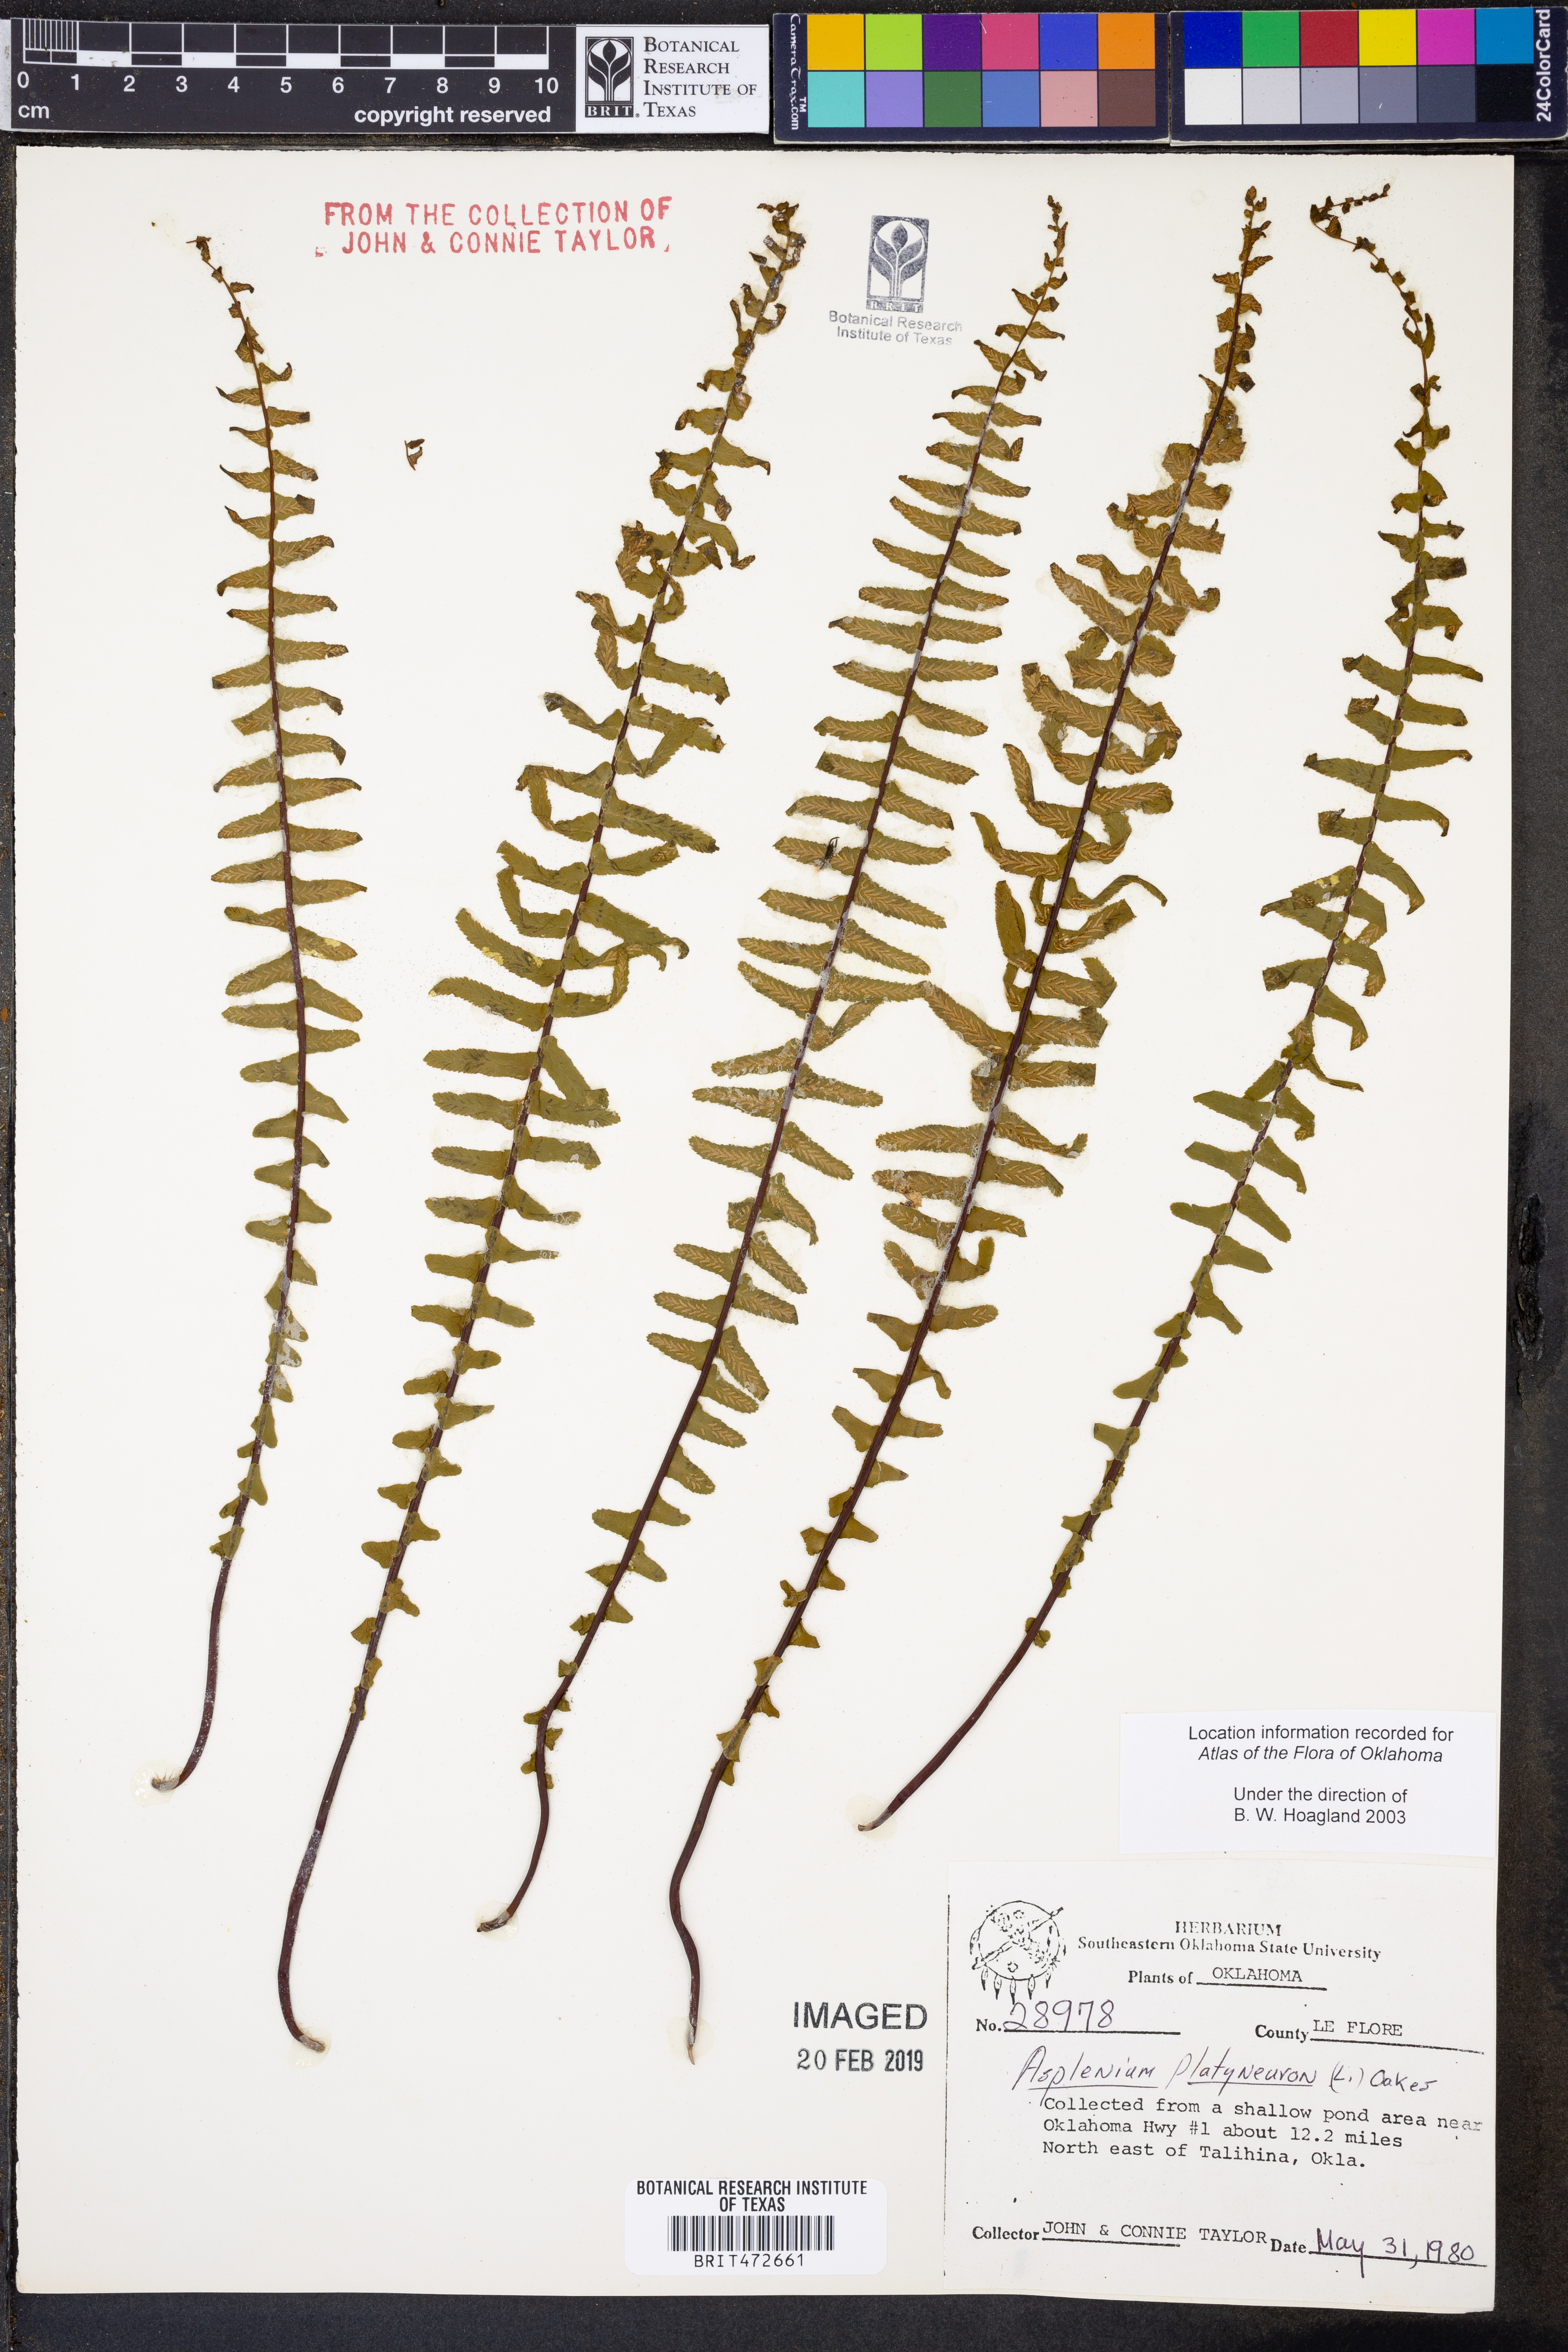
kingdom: Plantae
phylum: Tracheophyta
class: Polypodiopsida
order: Polypodiales
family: Aspleniaceae
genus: Asplenium
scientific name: Asplenium platyneuron
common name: Ebony spleenwort
